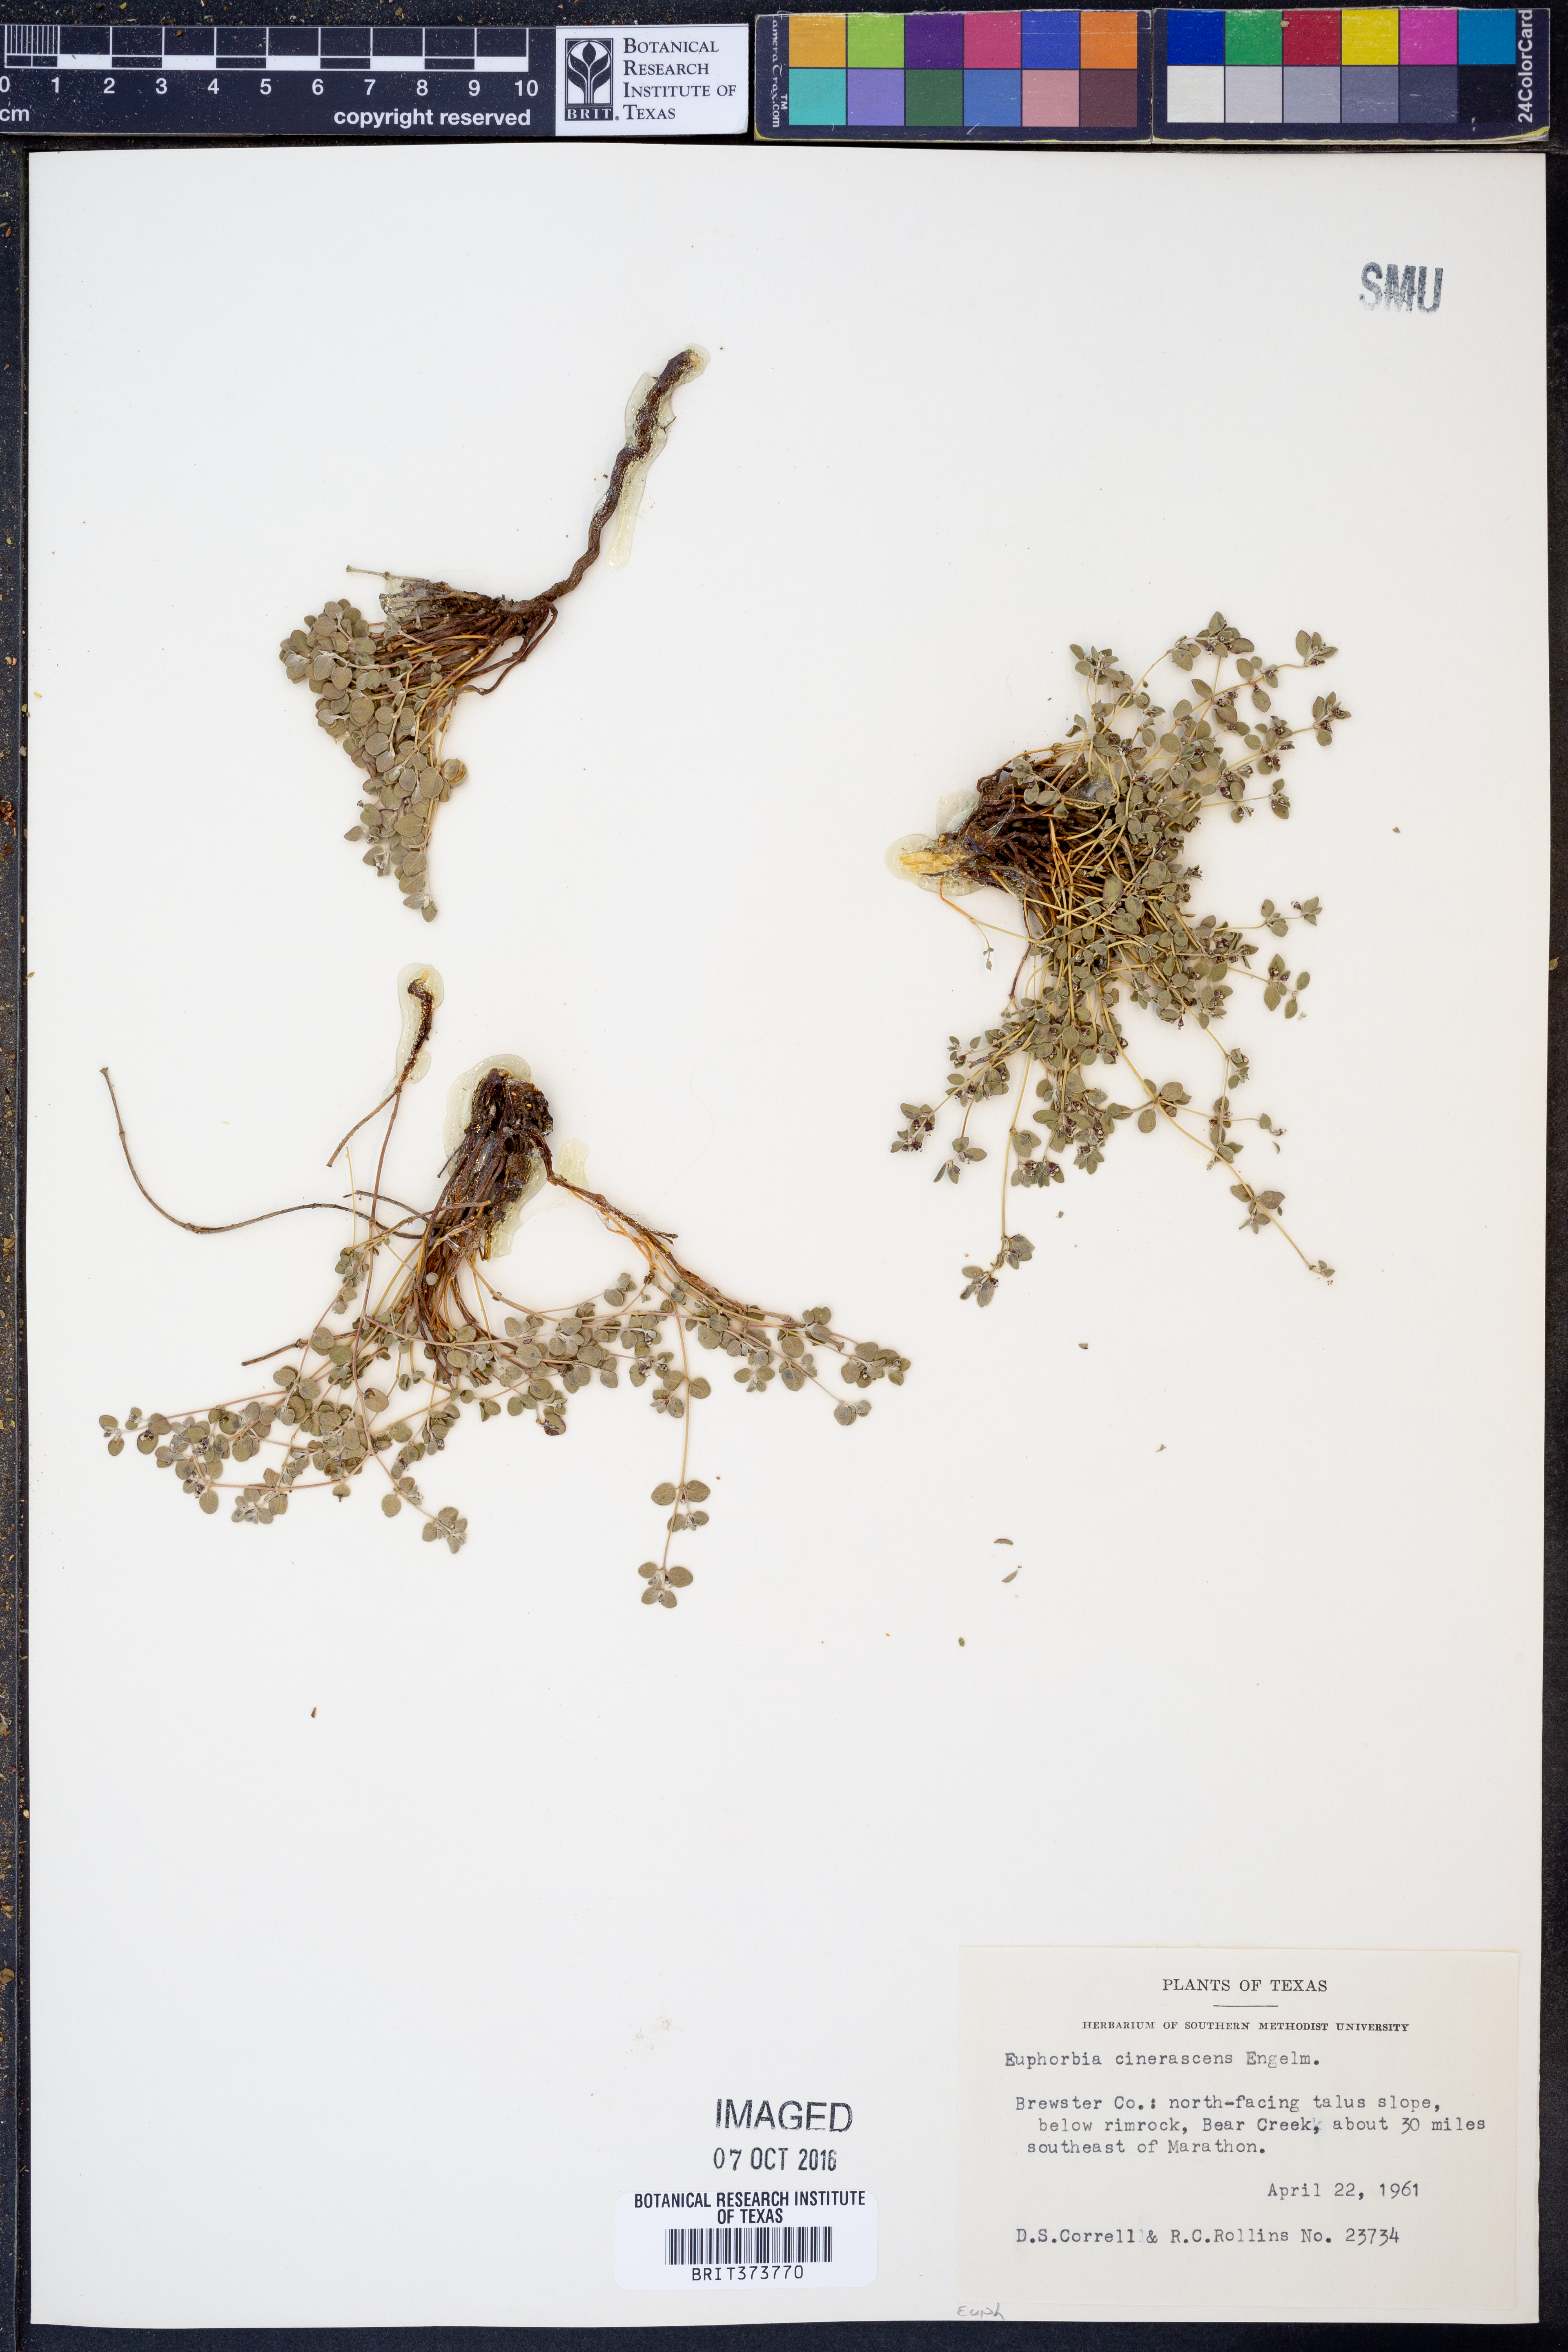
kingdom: Plantae
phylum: Tracheophyta
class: Magnoliopsida
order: Malpighiales
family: Euphorbiaceae
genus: Euphorbia
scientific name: Euphorbia cinerascens
